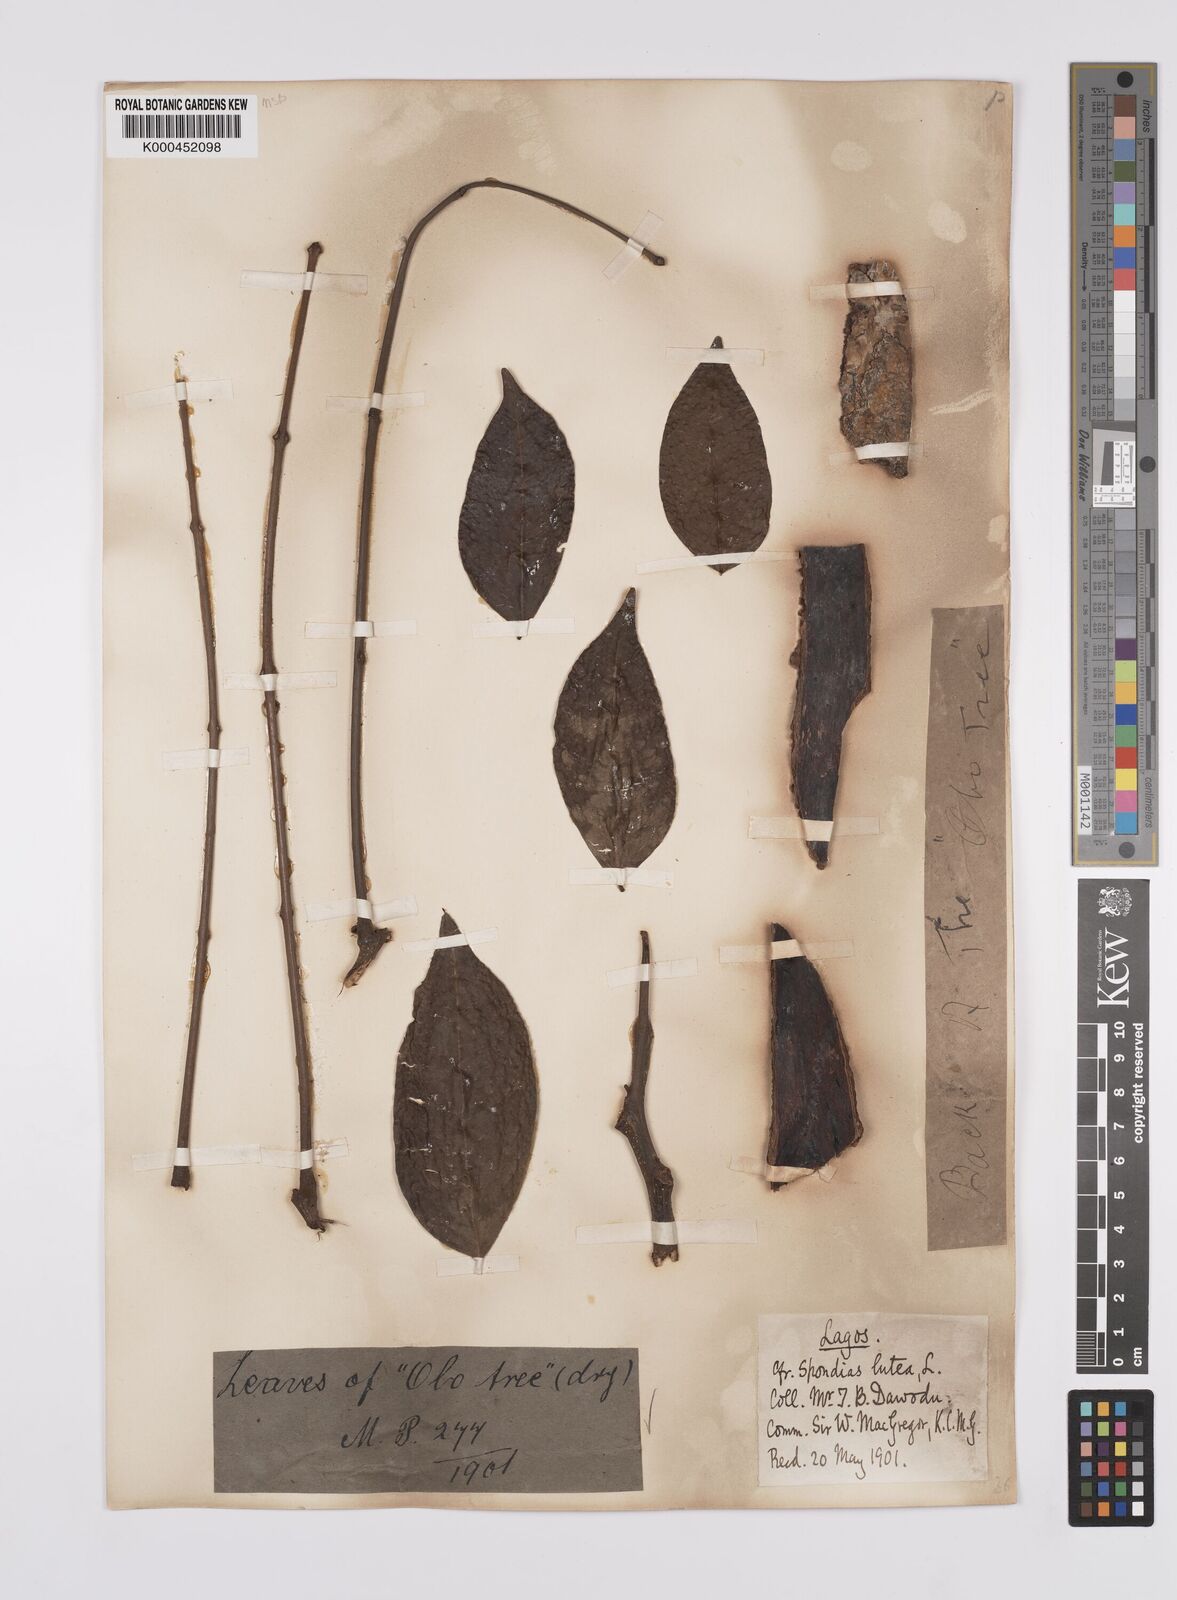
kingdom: Plantae
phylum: Tracheophyta
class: Magnoliopsida
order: Sapindales
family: Anacardiaceae
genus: Spondias
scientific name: Spondias mombin
